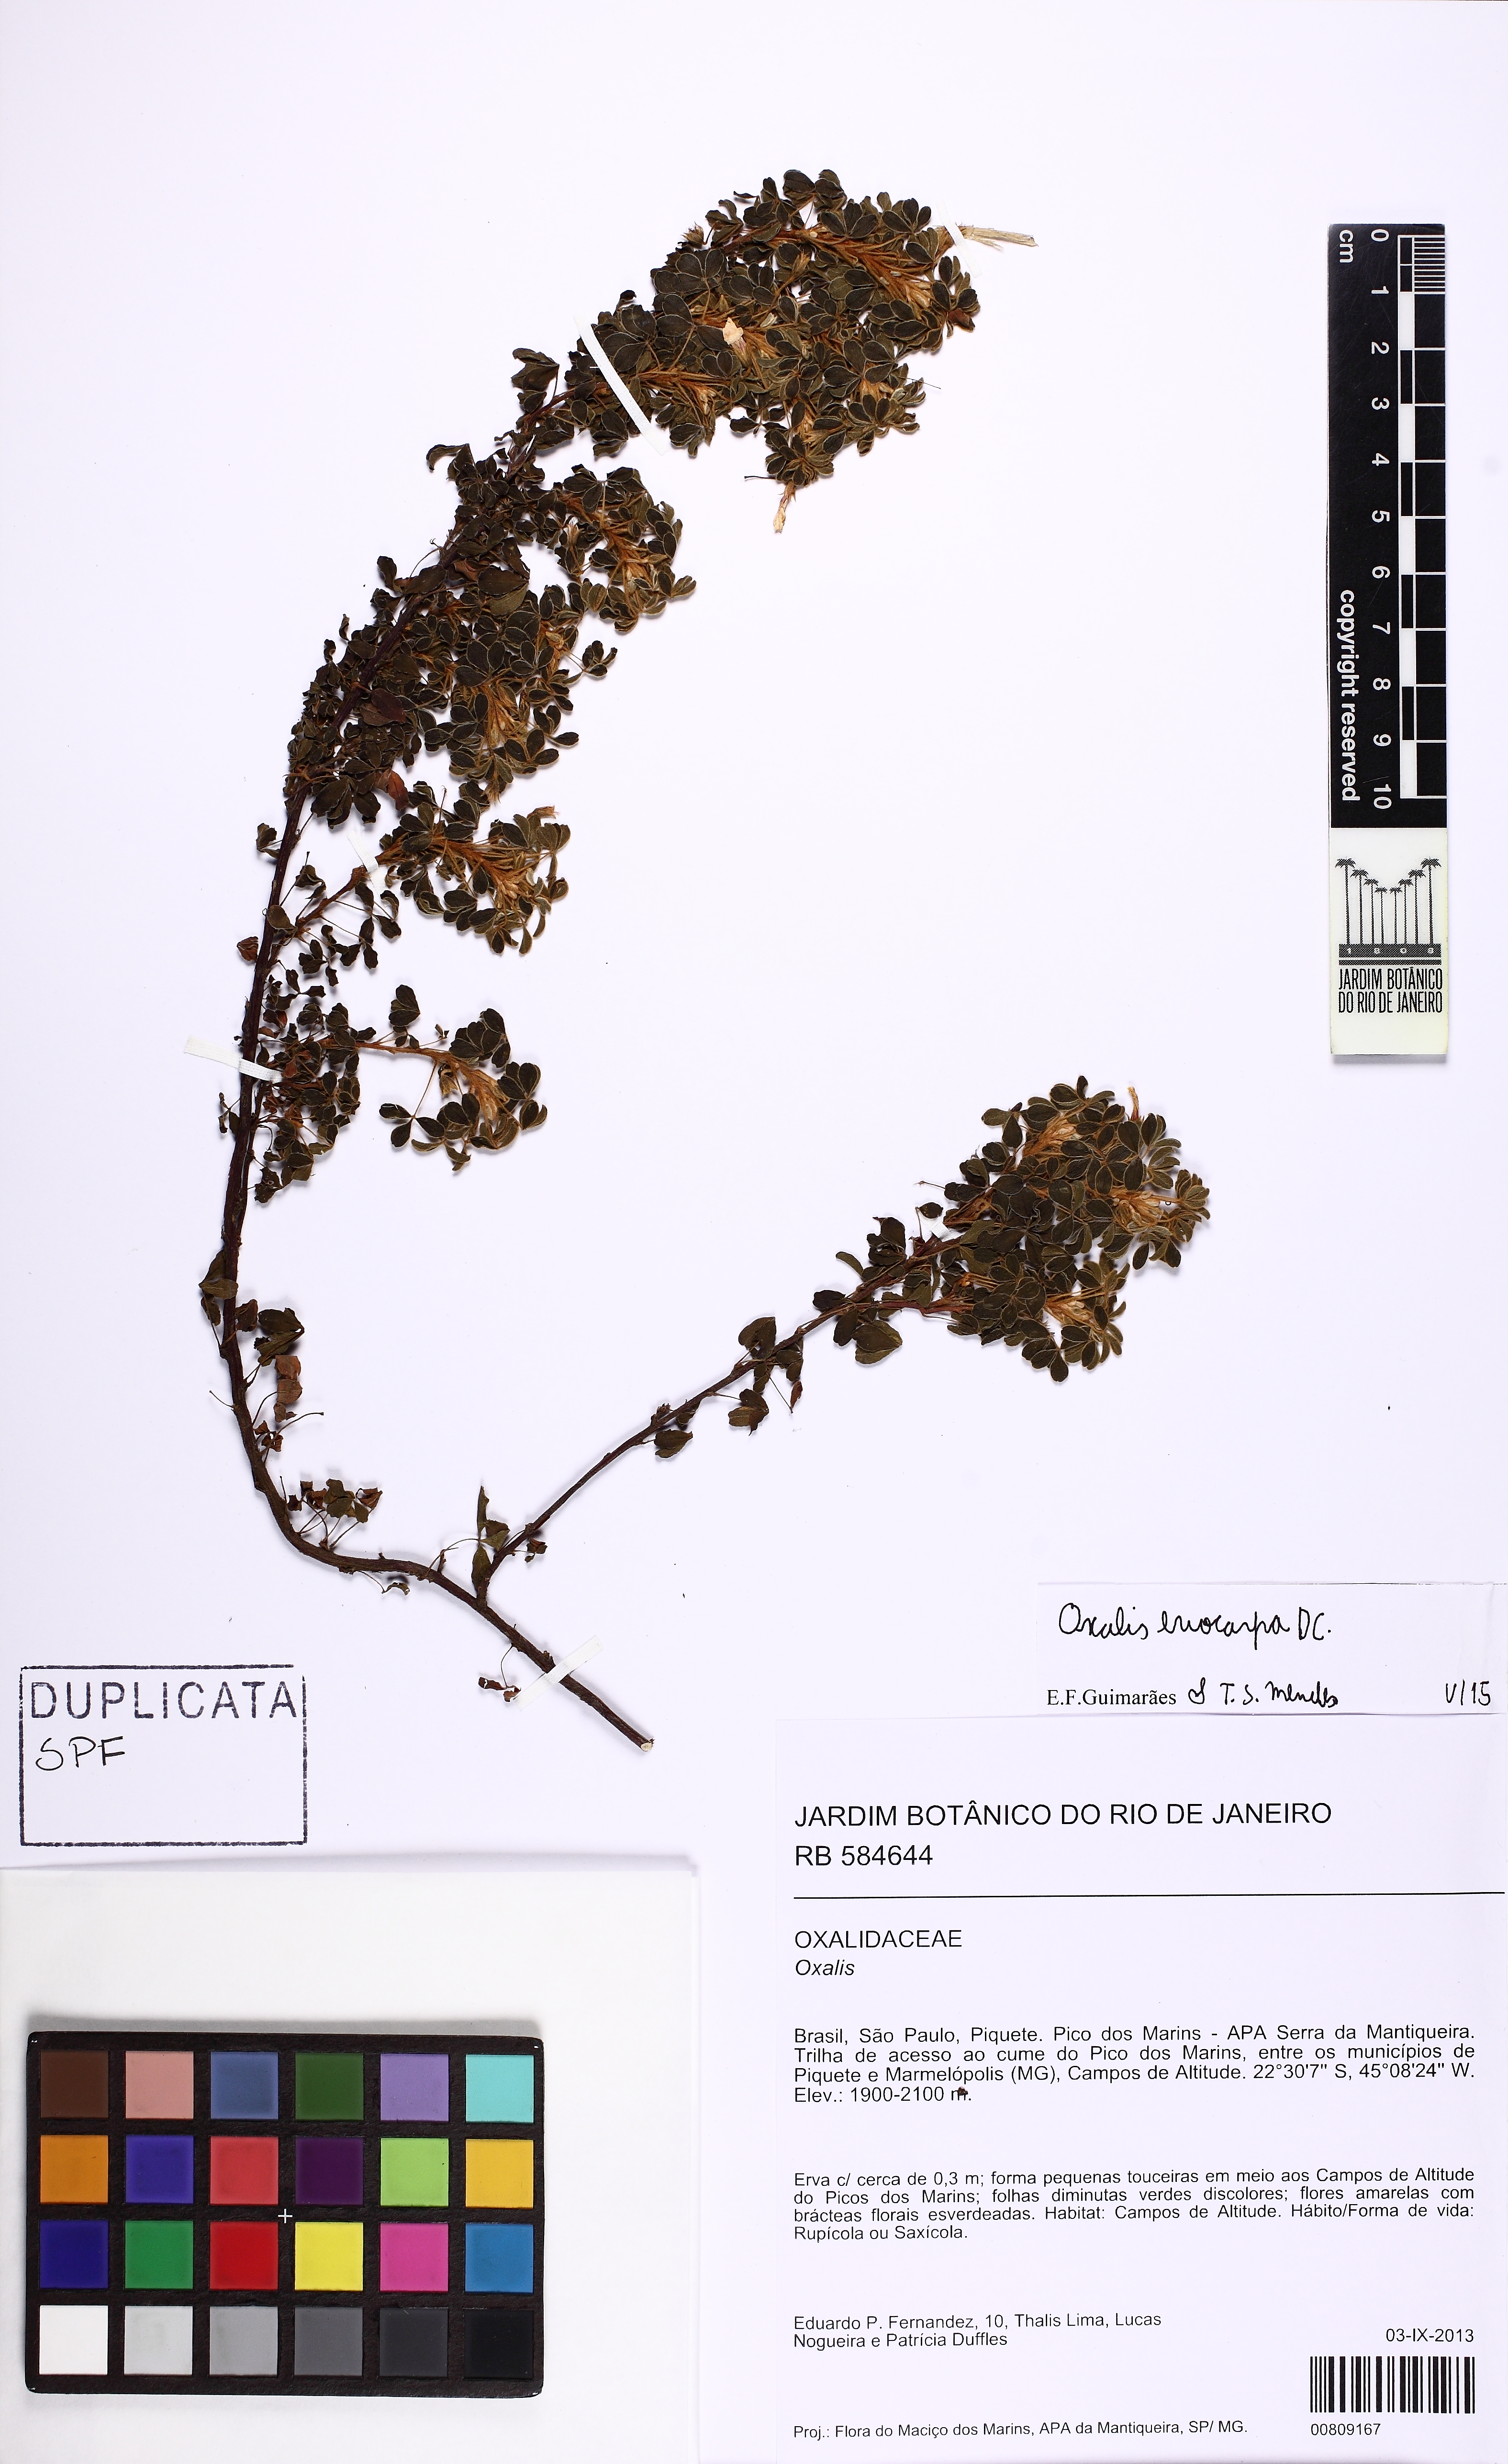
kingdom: Plantae
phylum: Tracheophyta
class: Magnoliopsida
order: Oxalidales
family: Oxalidaceae
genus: Oxalis
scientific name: Oxalis confertissima
